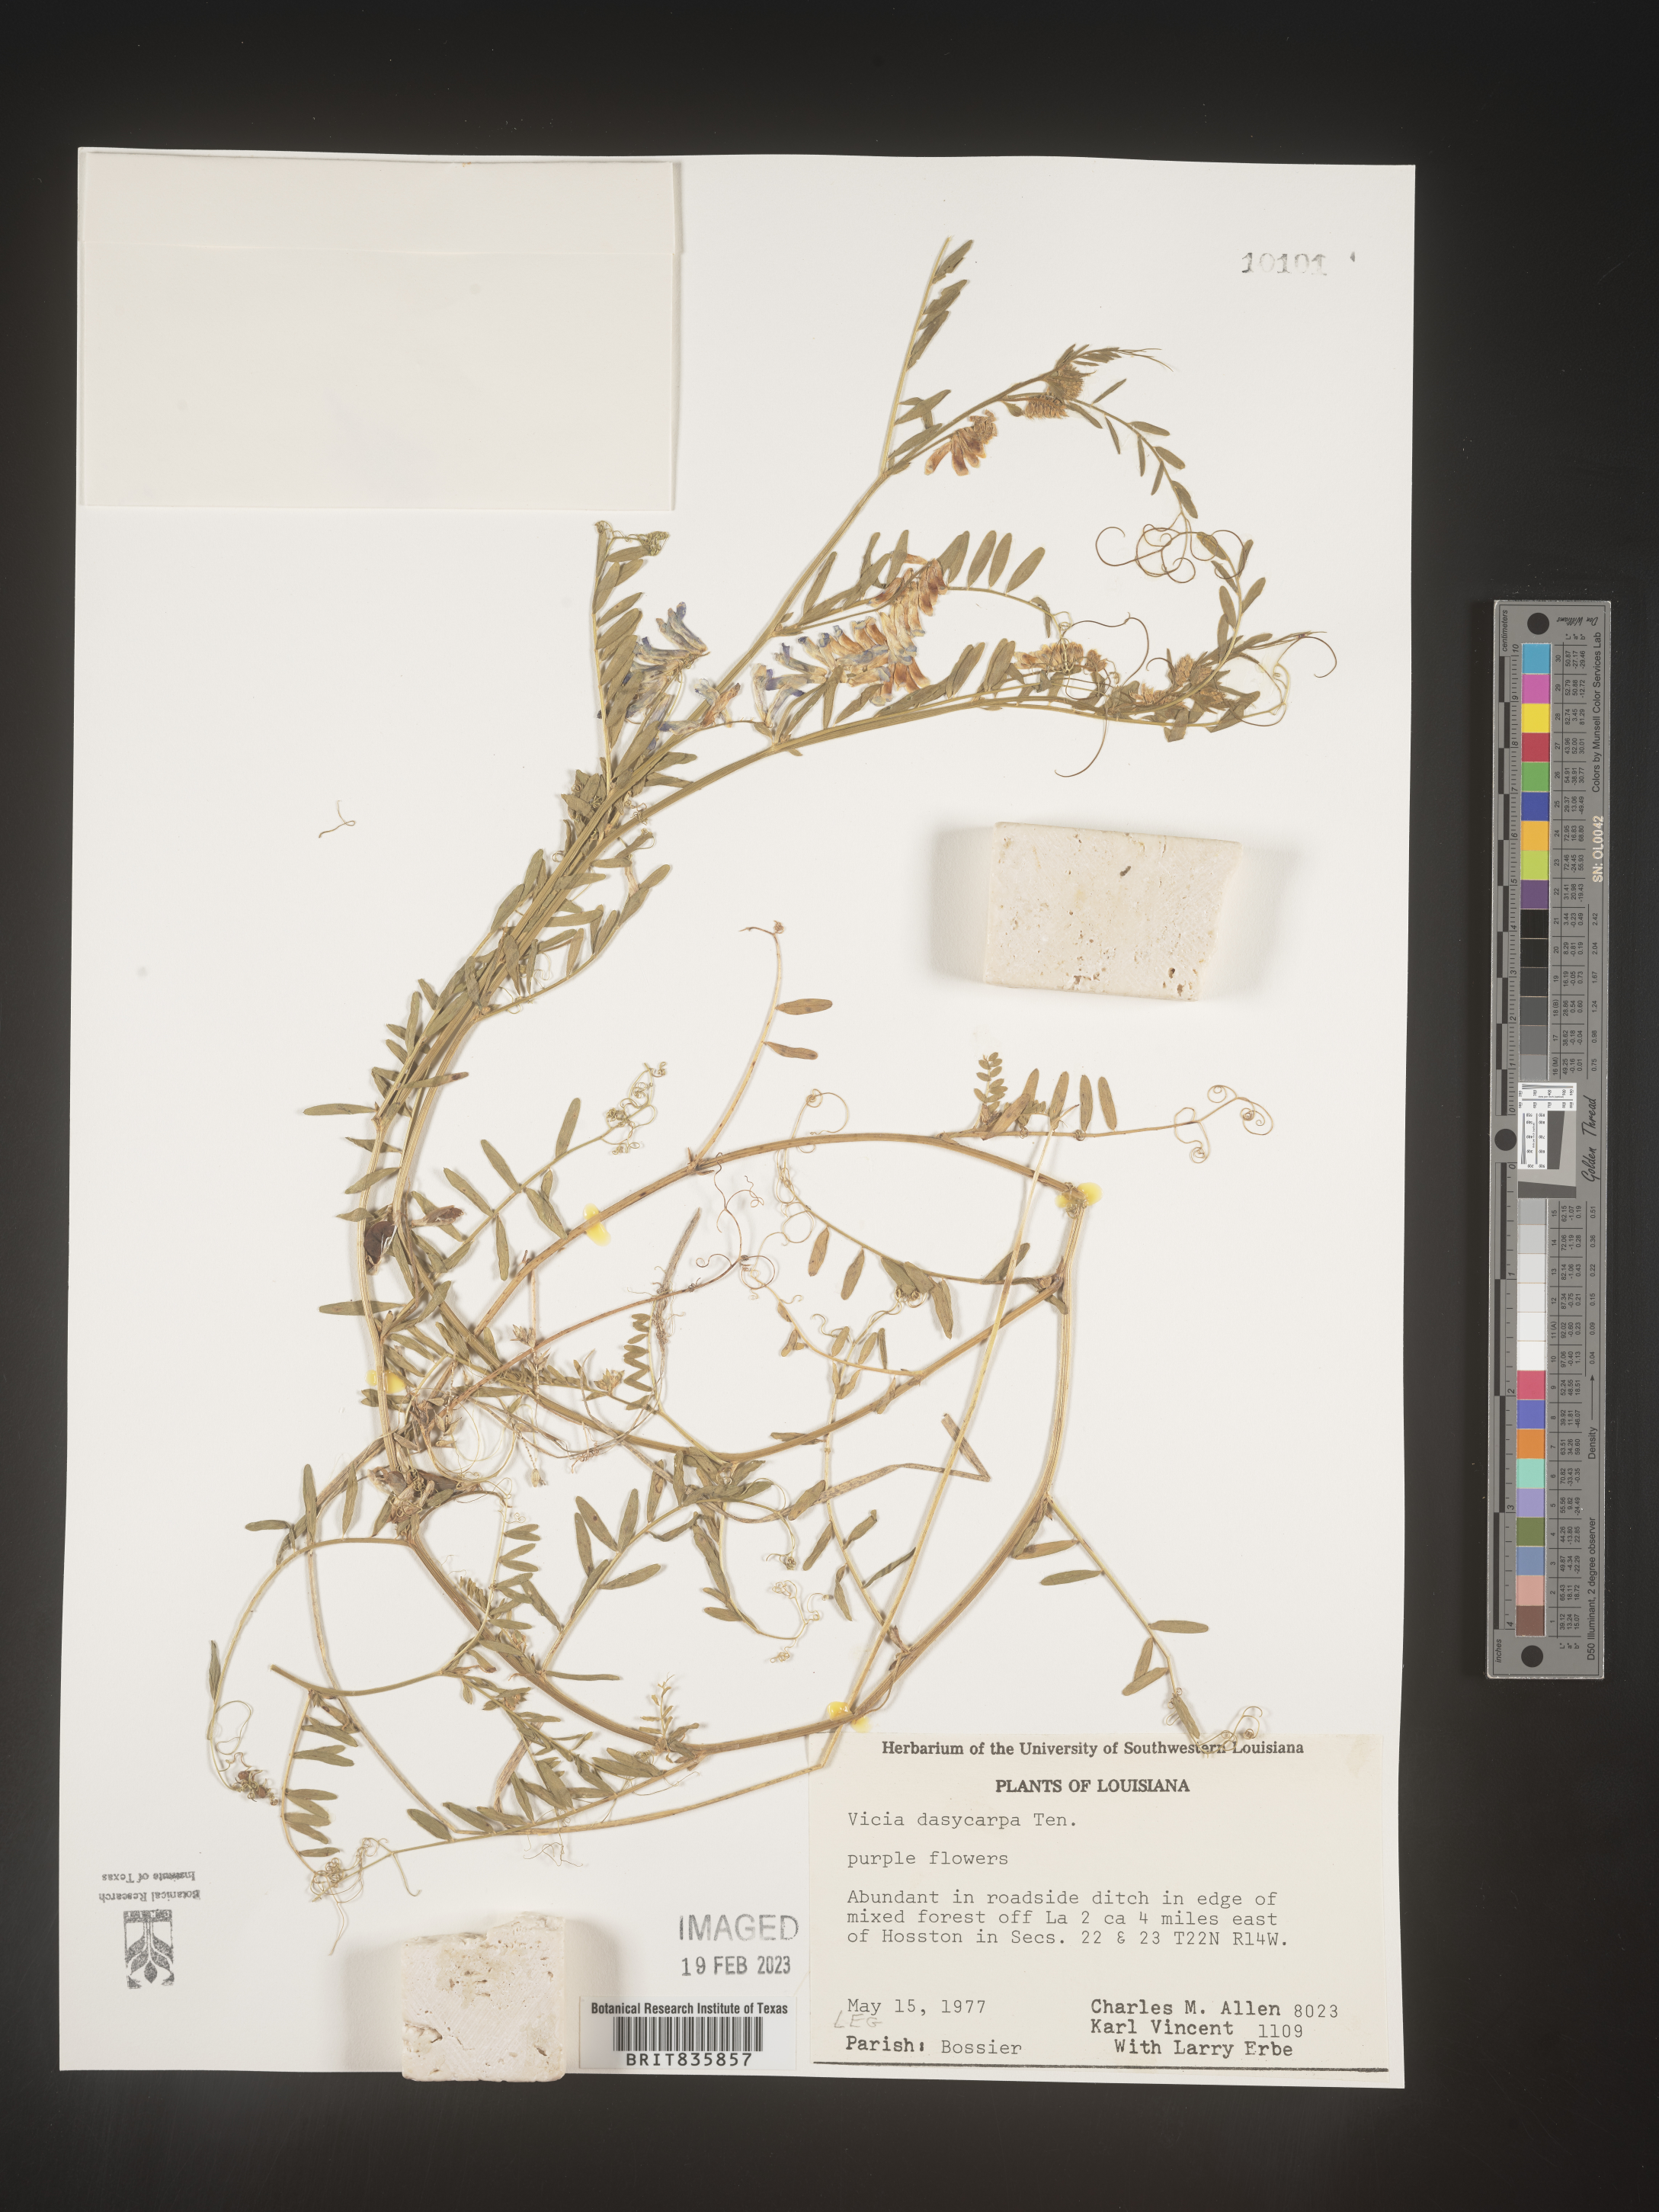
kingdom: Plantae
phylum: Tracheophyta
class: Magnoliopsida
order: Fabales
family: Fabaceae
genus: Vicia
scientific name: Vicia villosa
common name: Fodder vetch
